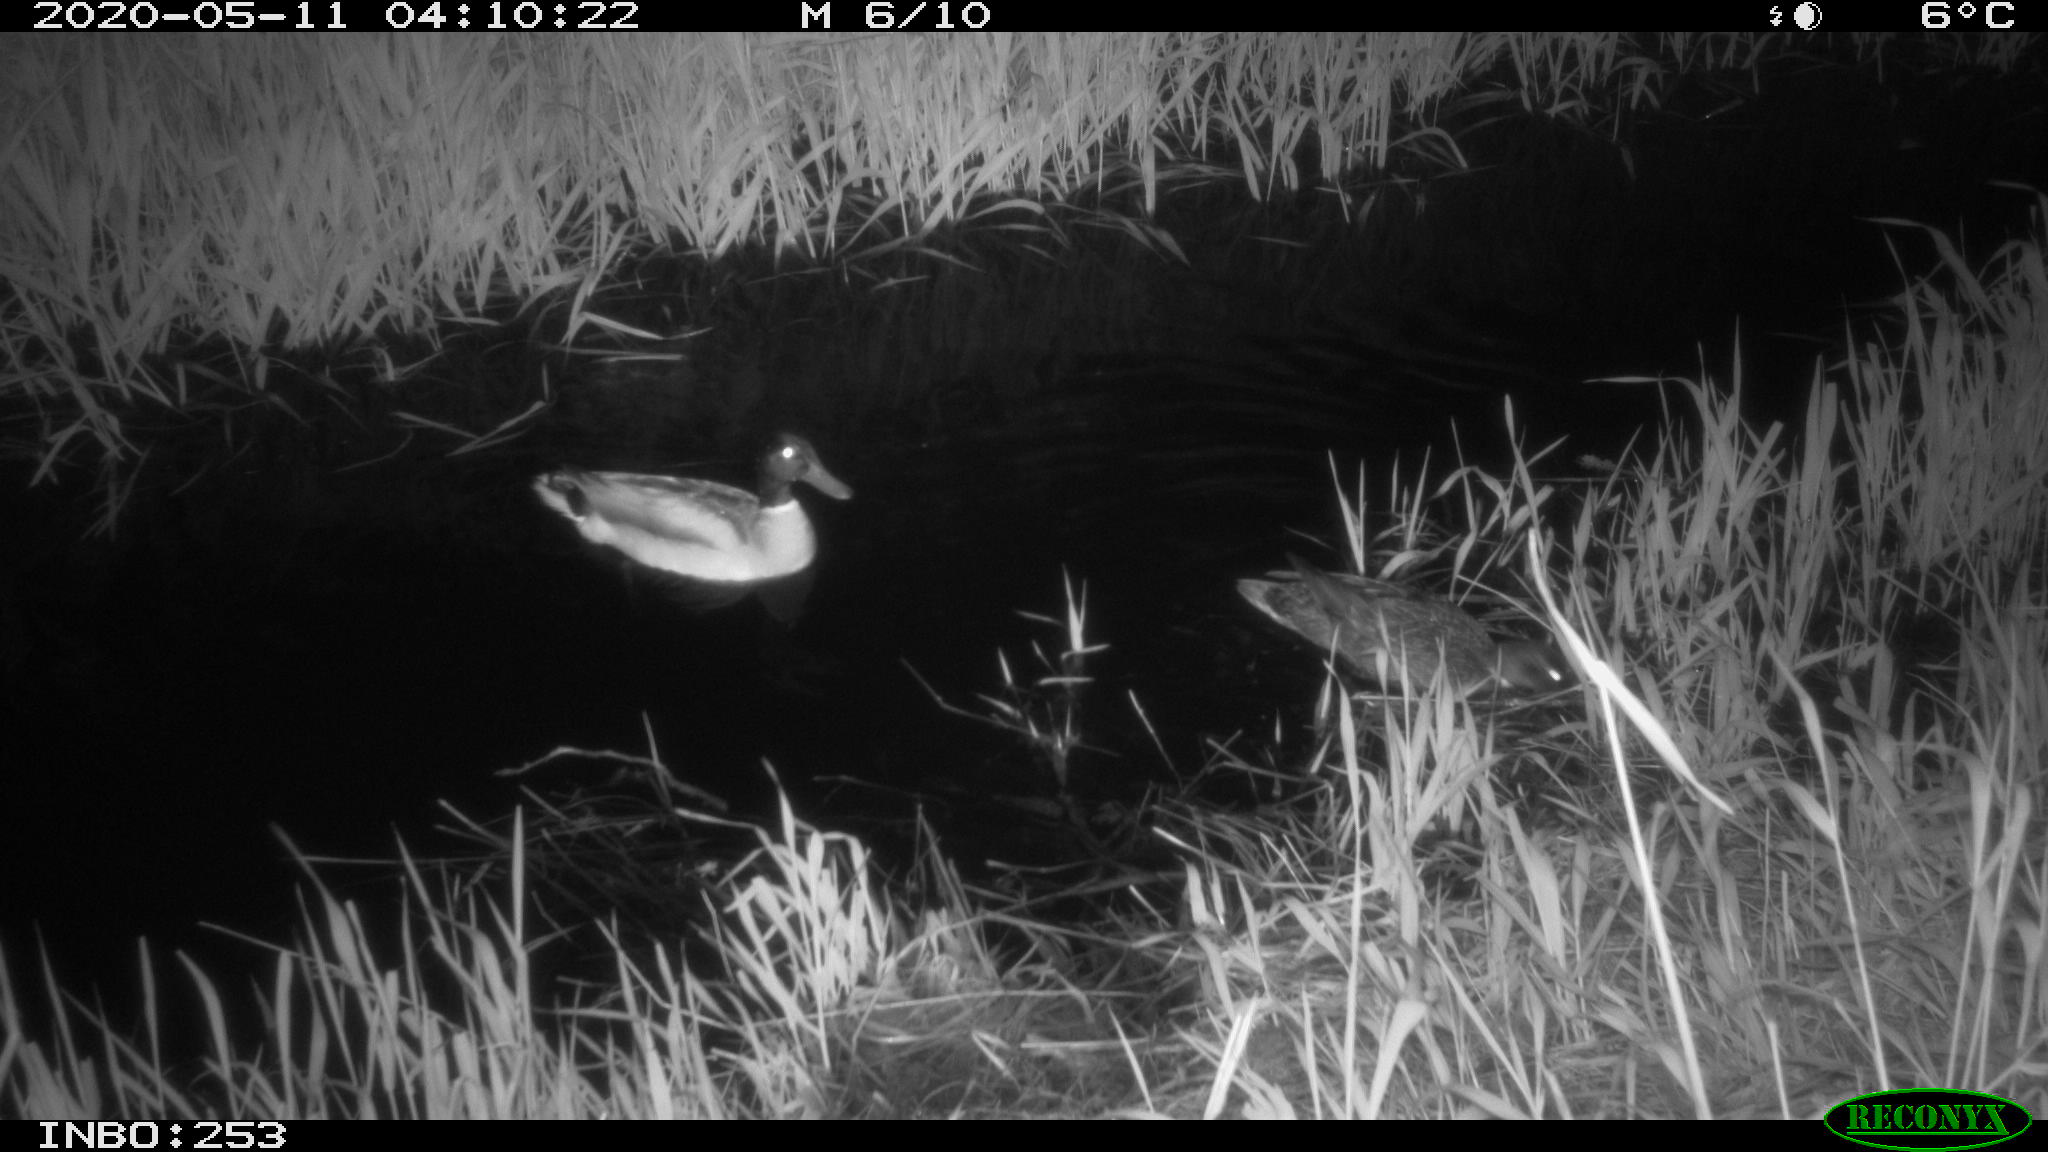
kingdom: Animalia
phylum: Chordata
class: Aves
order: Anseriformes
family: Anatidae
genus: Anas
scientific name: Anas platyrhynchos
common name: Mallard
